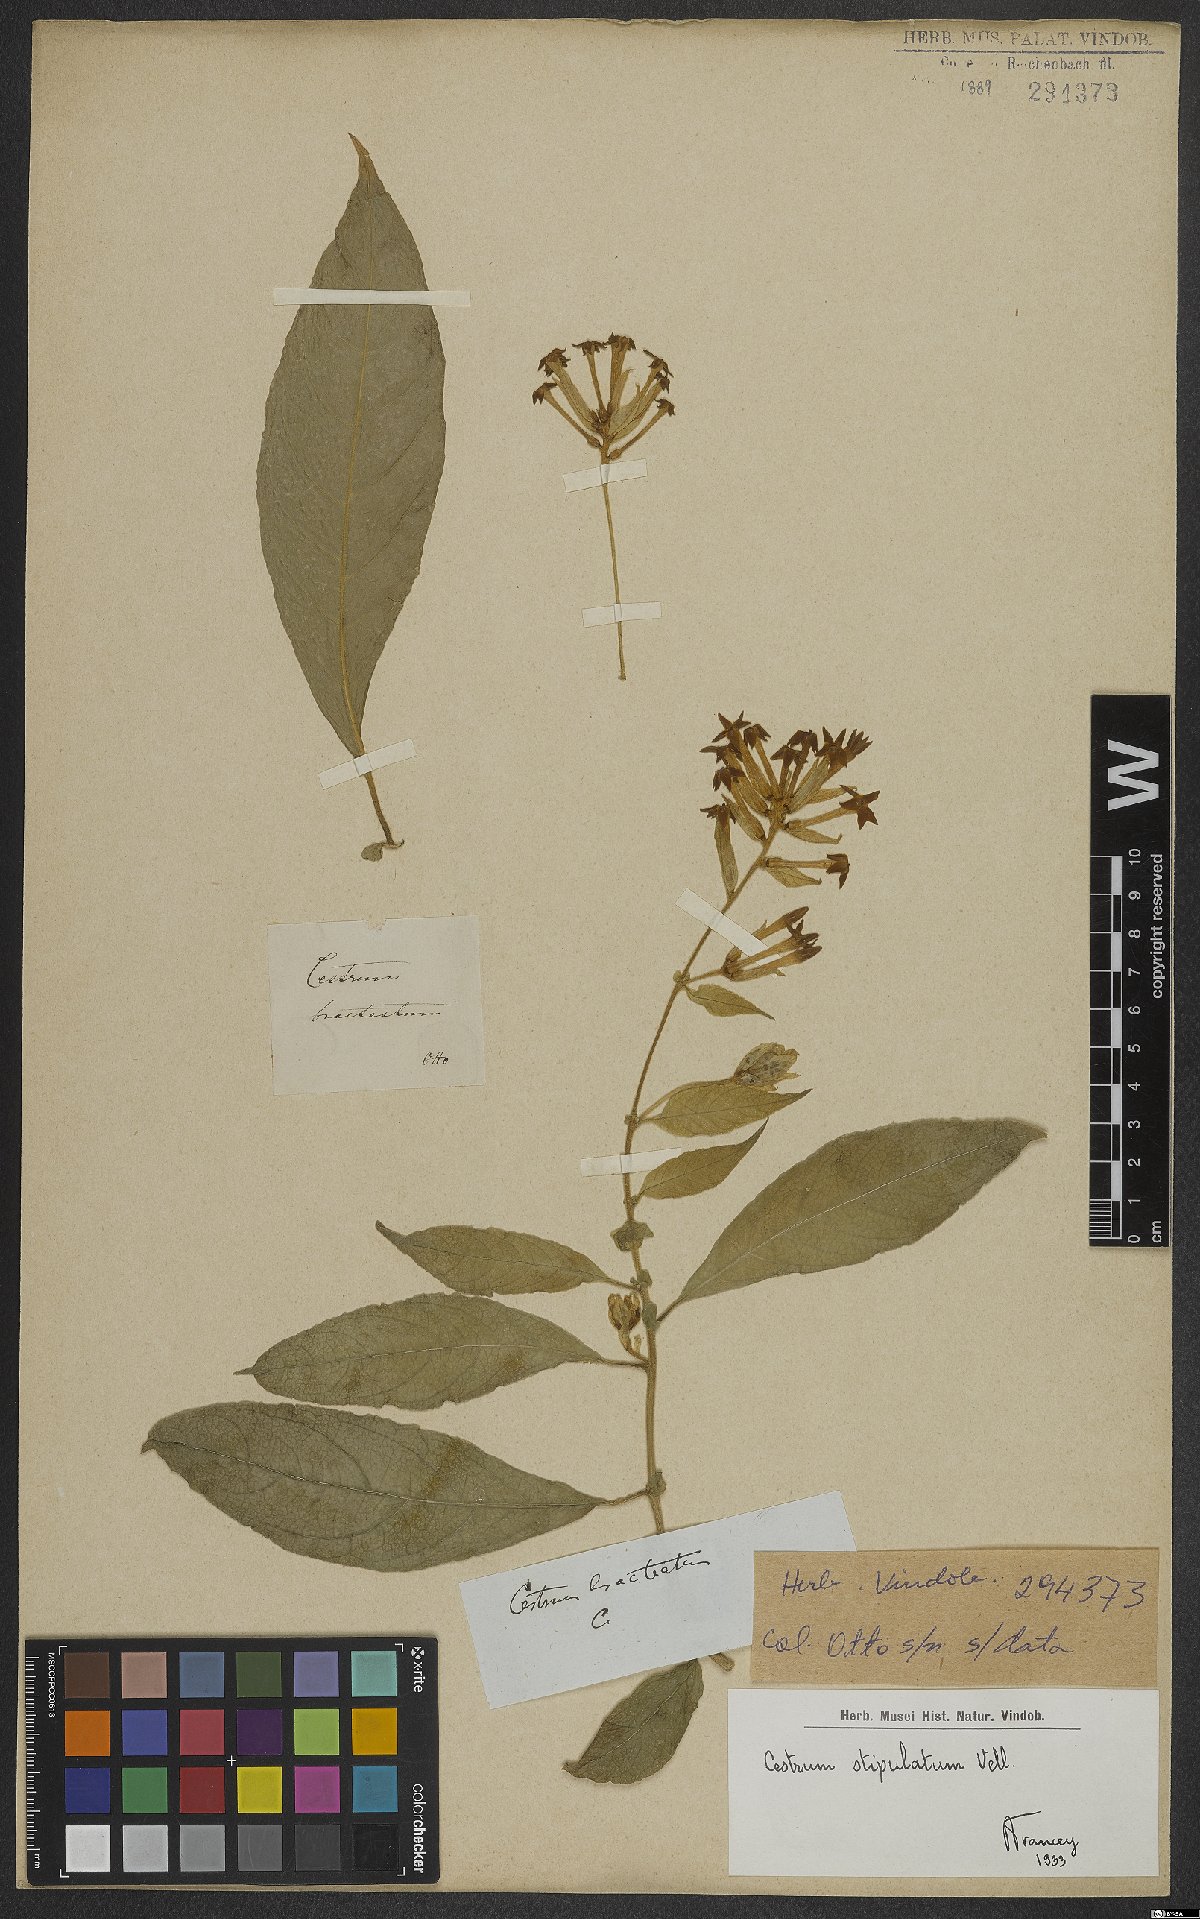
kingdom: Plantae
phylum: Tracheophyta
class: Magnoliopsida
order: Solanales
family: Solanaceae
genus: Cestrum
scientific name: Cestrum bracteatum
